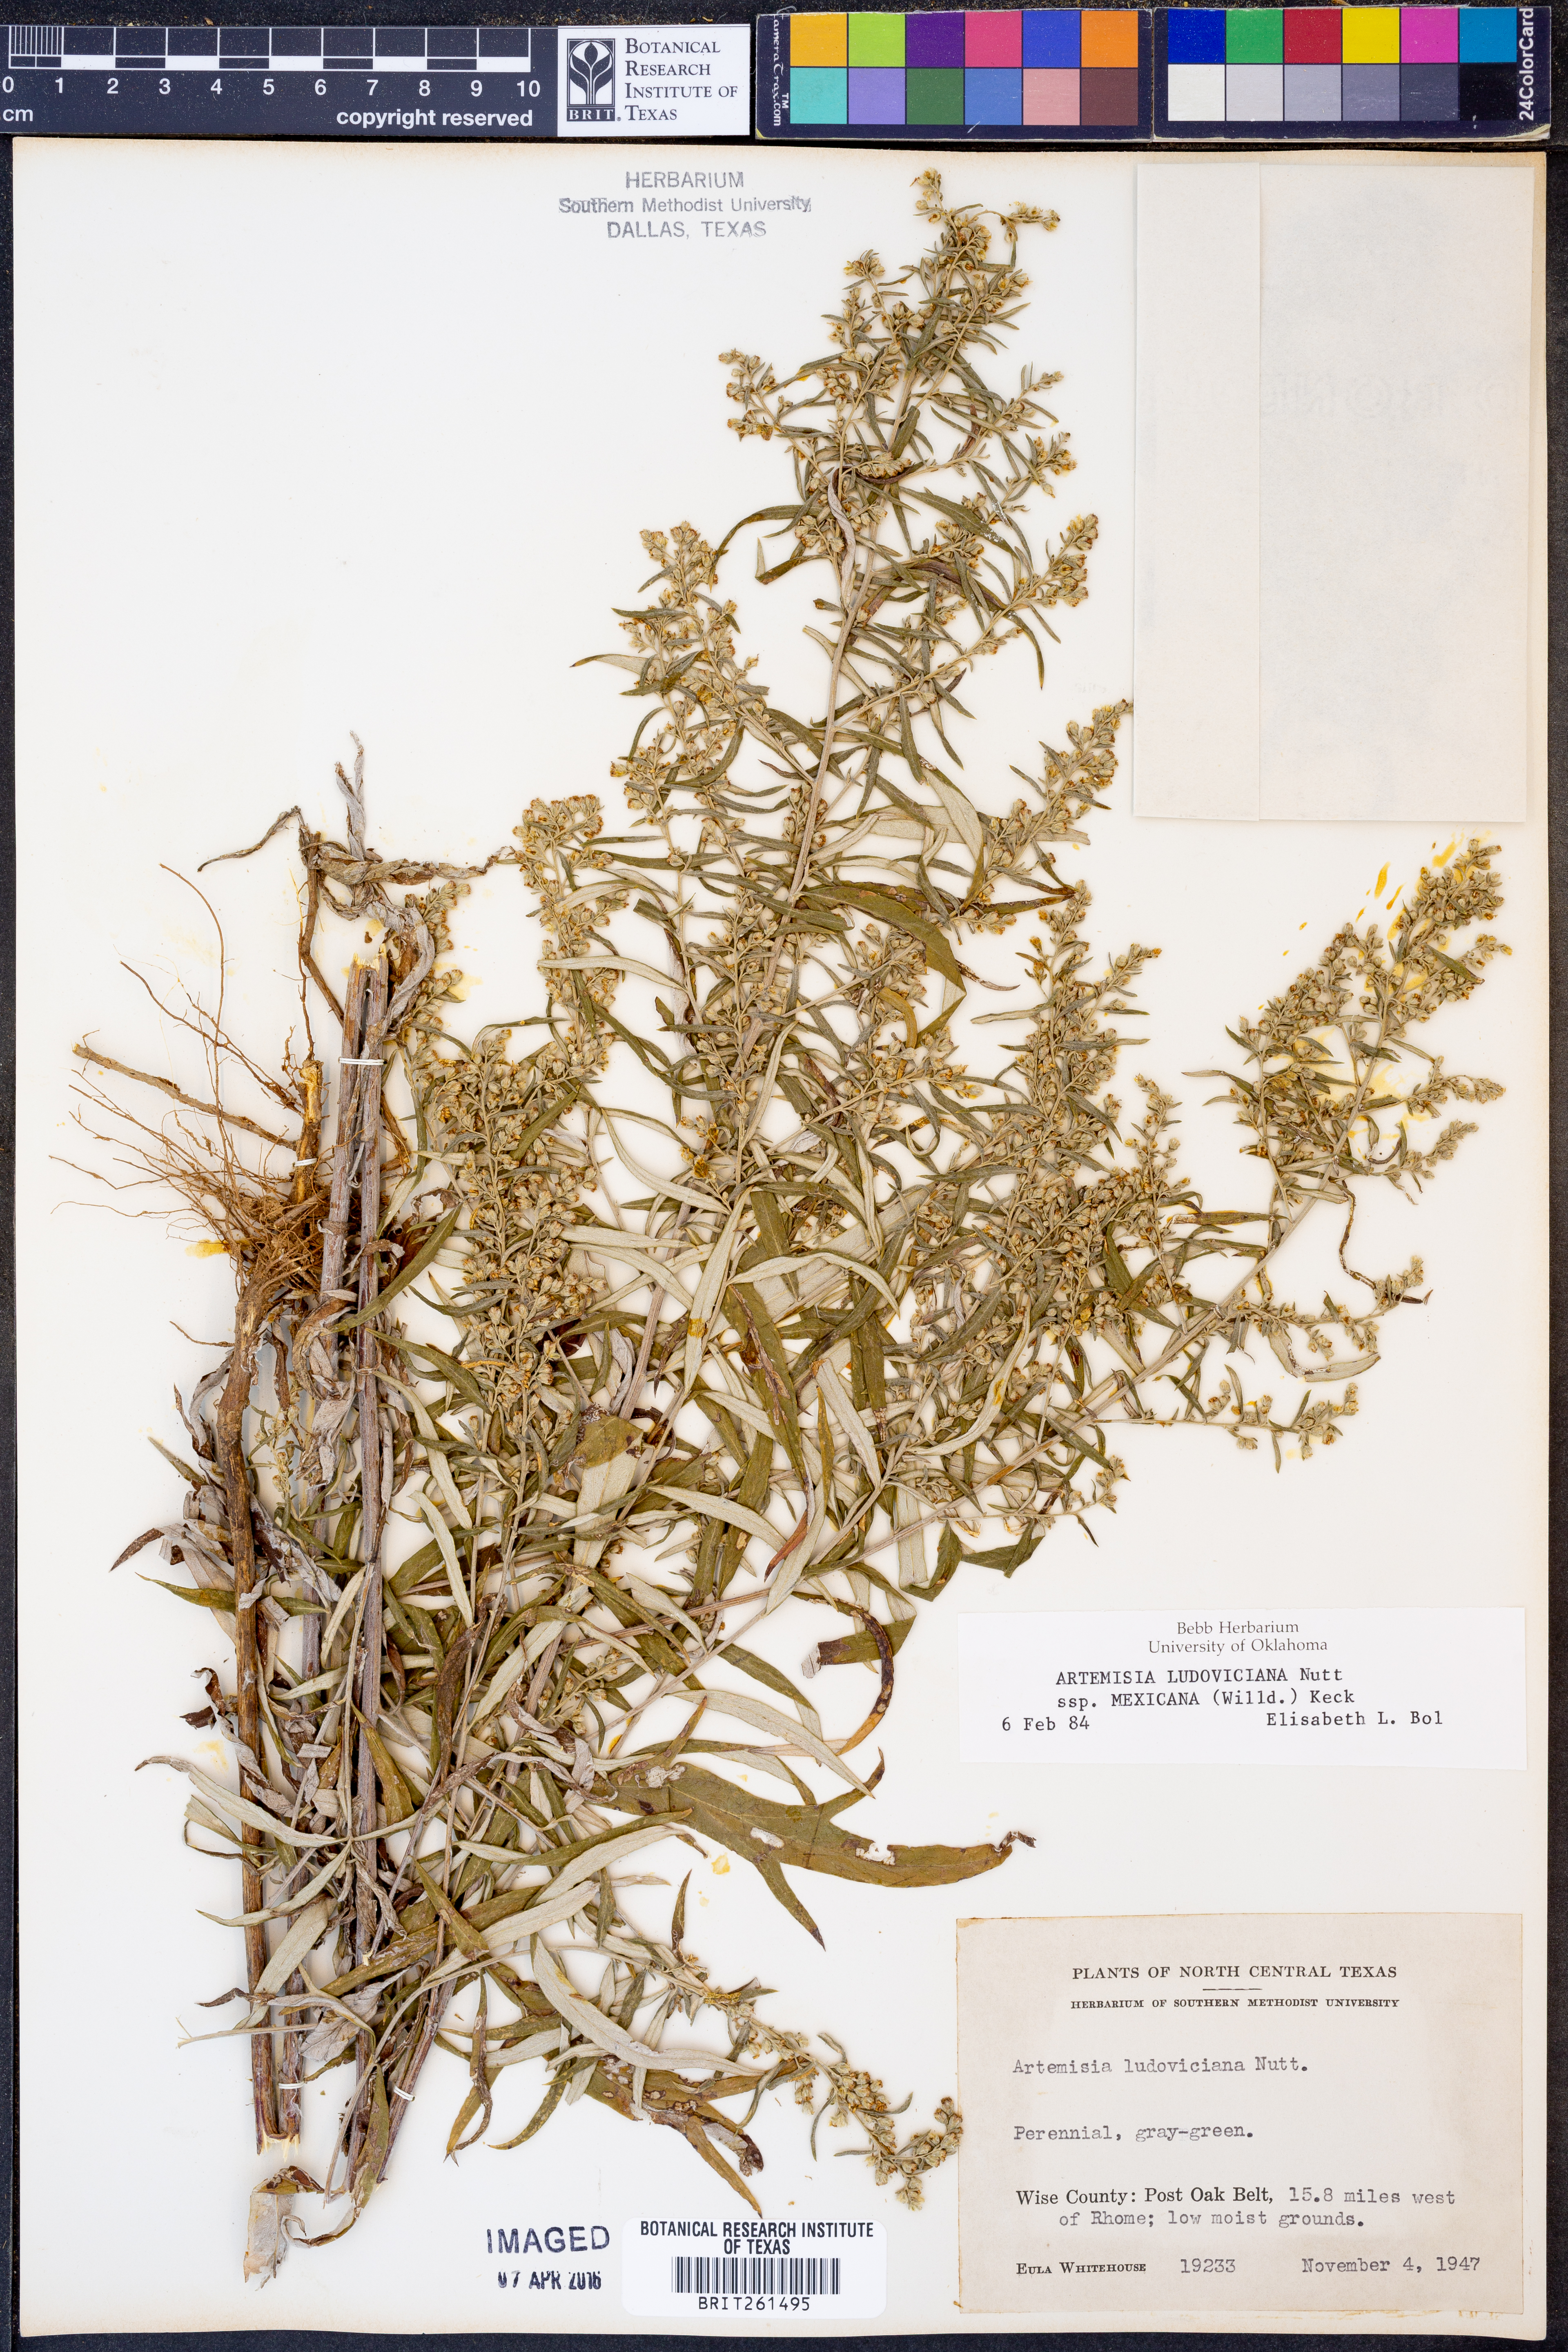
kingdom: Plantae
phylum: Tracheophyta
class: Magnoliopsida
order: Asterales
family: Asteraceae
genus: Artemisia
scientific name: Artemisia ludoviciana
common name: Western mugwort
